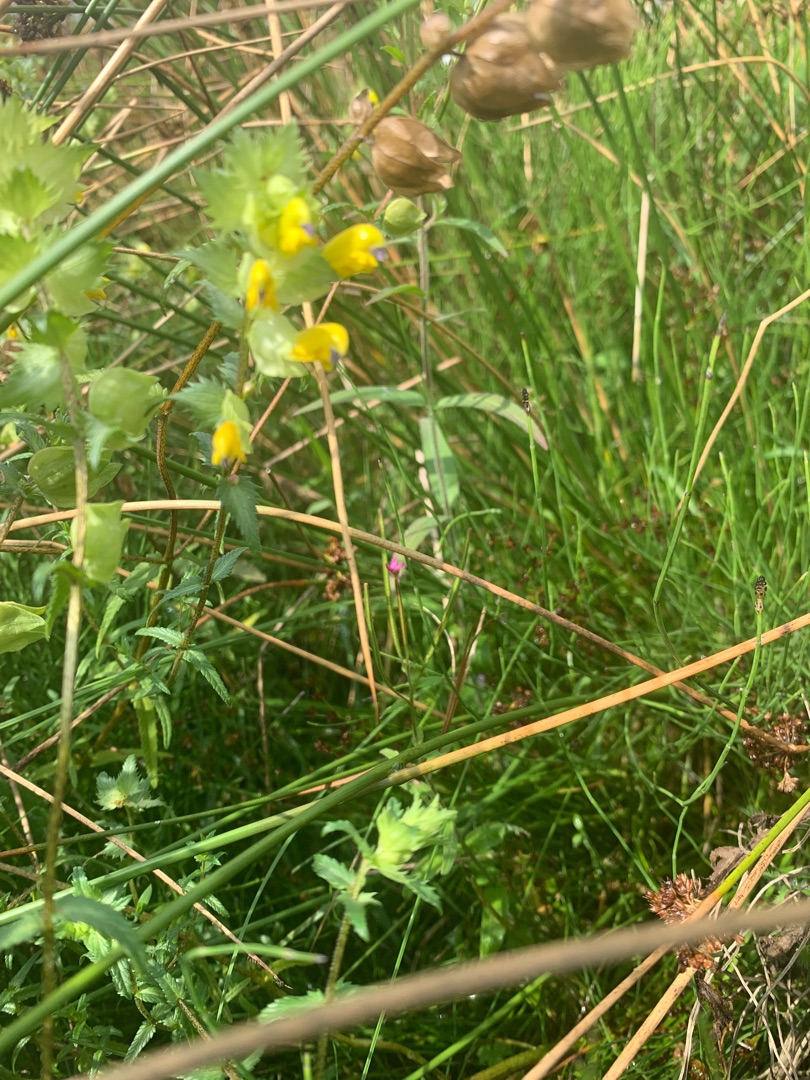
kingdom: Plantae
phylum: Tracheophyta
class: Magnoliopsida
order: Lamiales
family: Orobanchaceae
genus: Rhinanthus
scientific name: Rhinanthus
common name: Stor skjaller
